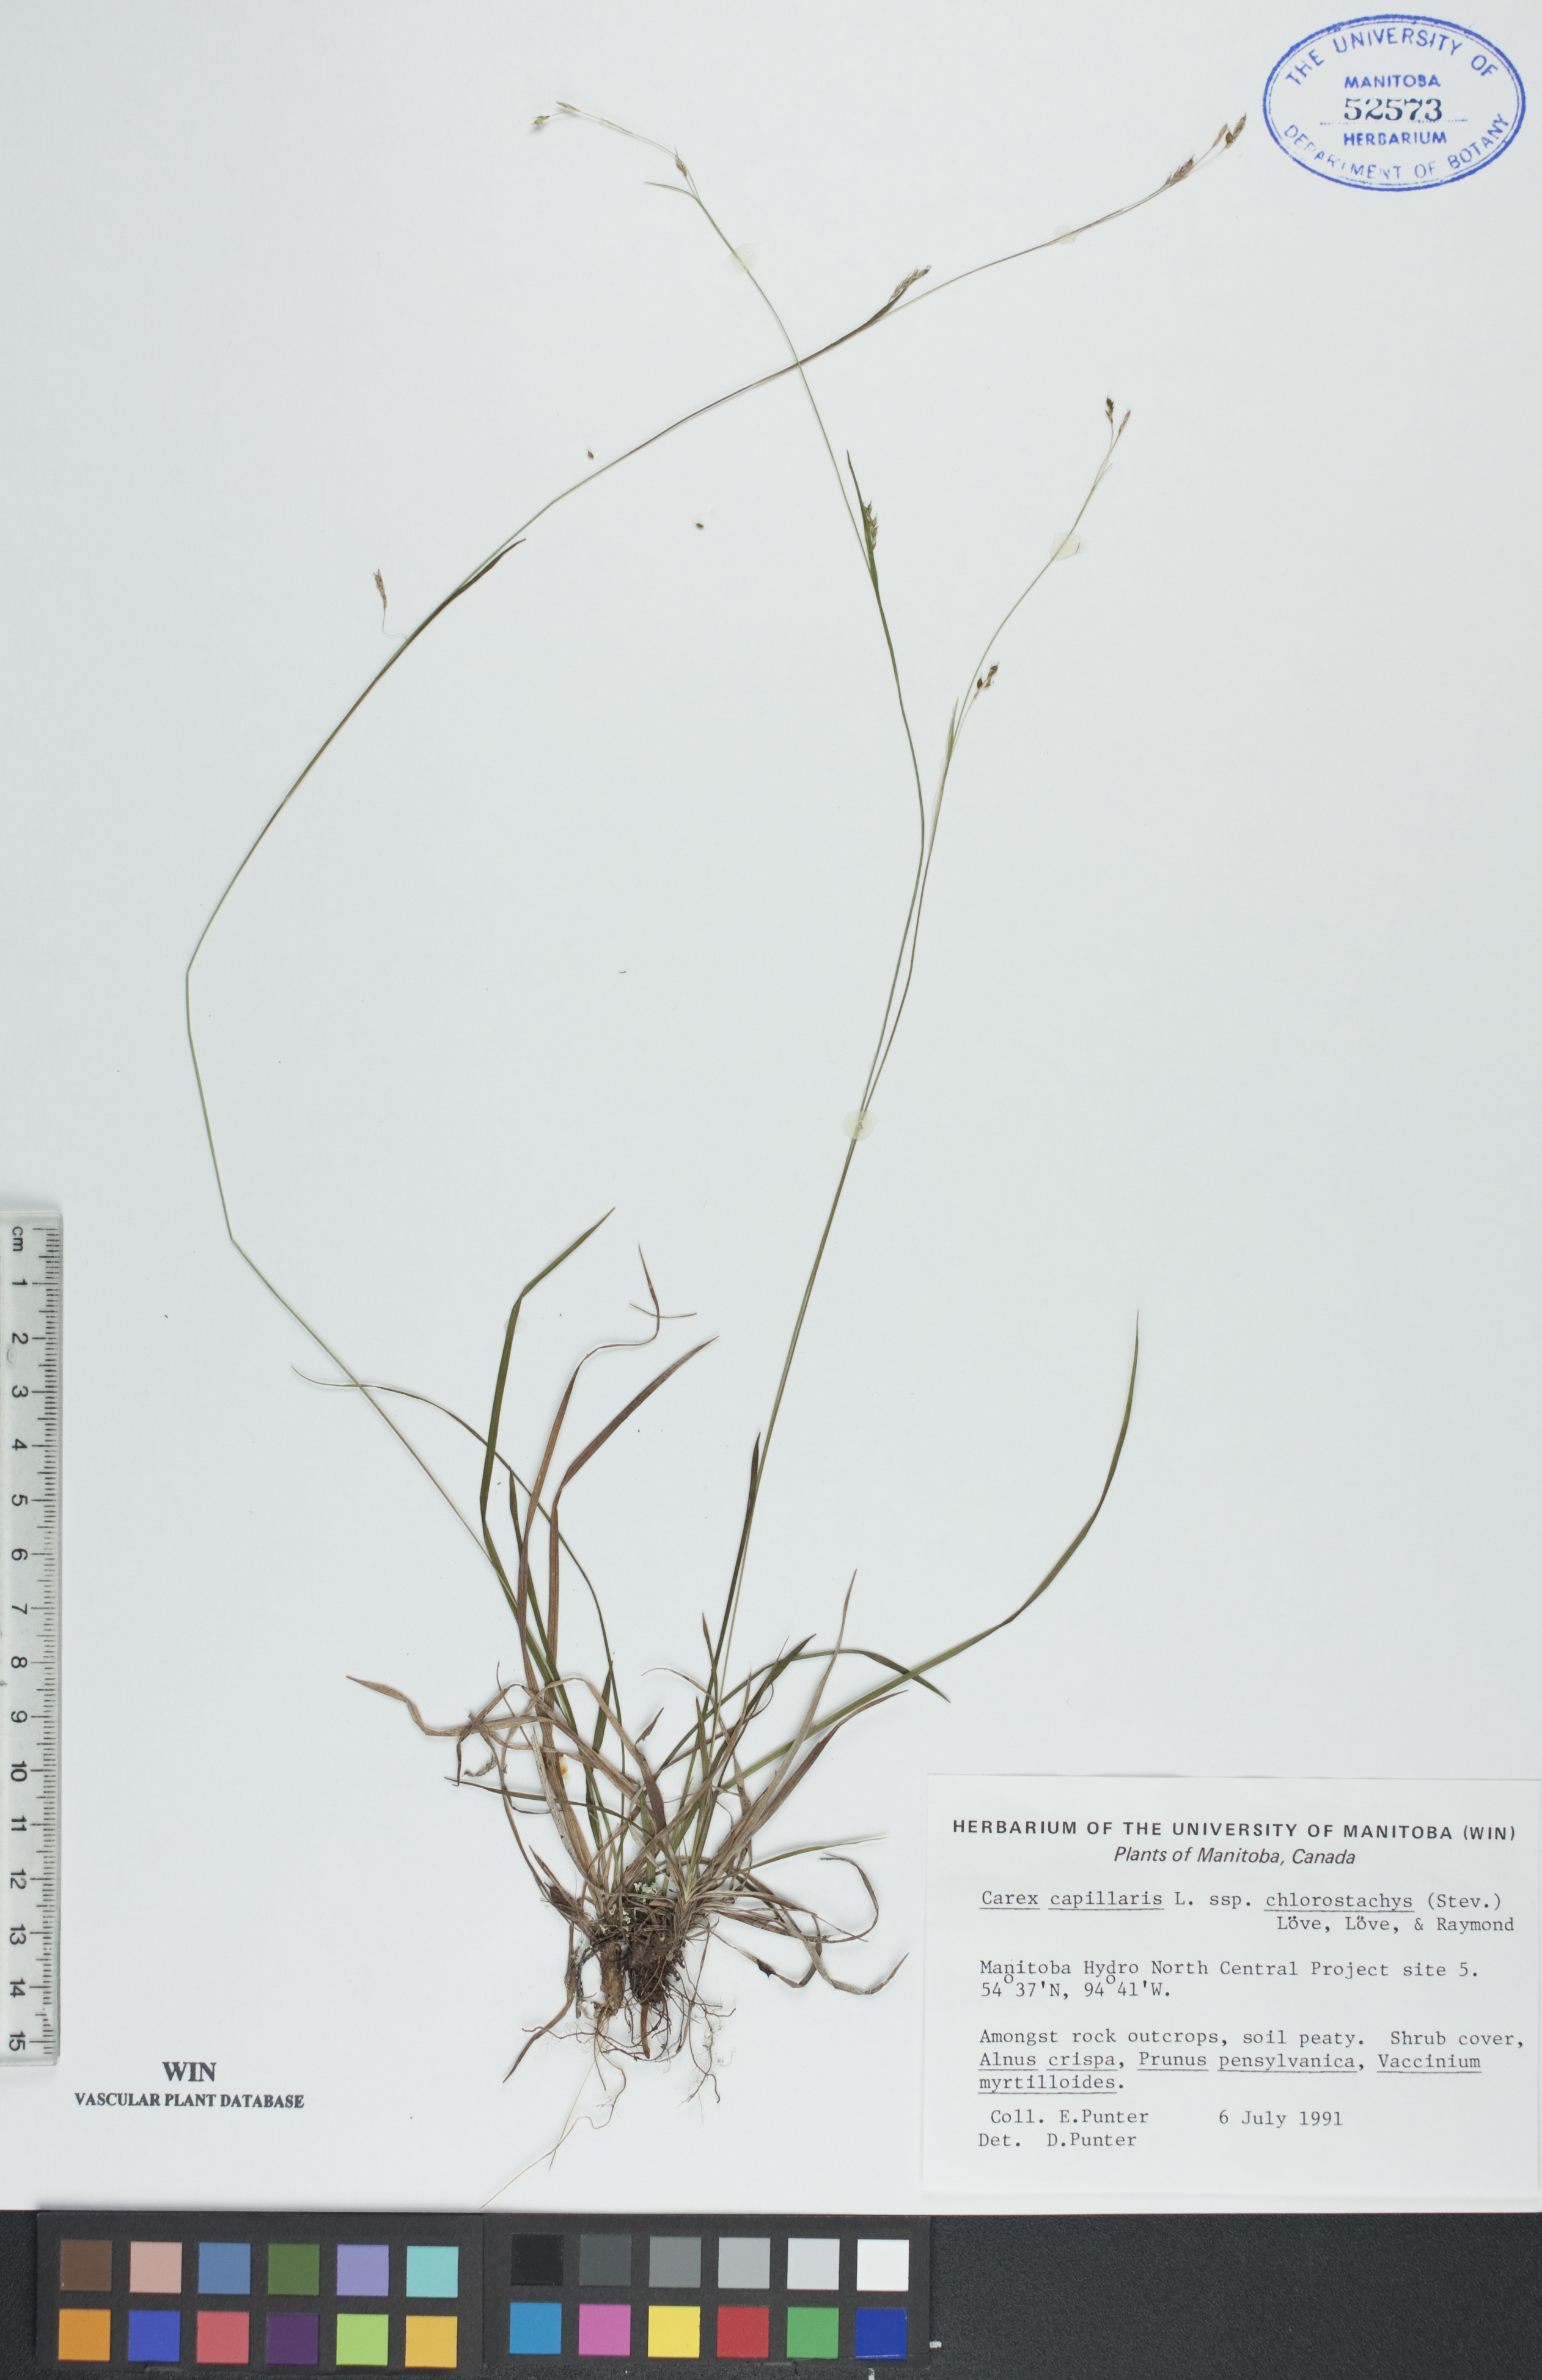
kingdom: Plantae
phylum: Tracheophyta
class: Liliopsida
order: Poales
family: Cyperaceae
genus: Carex
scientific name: Carex chlorostachys
